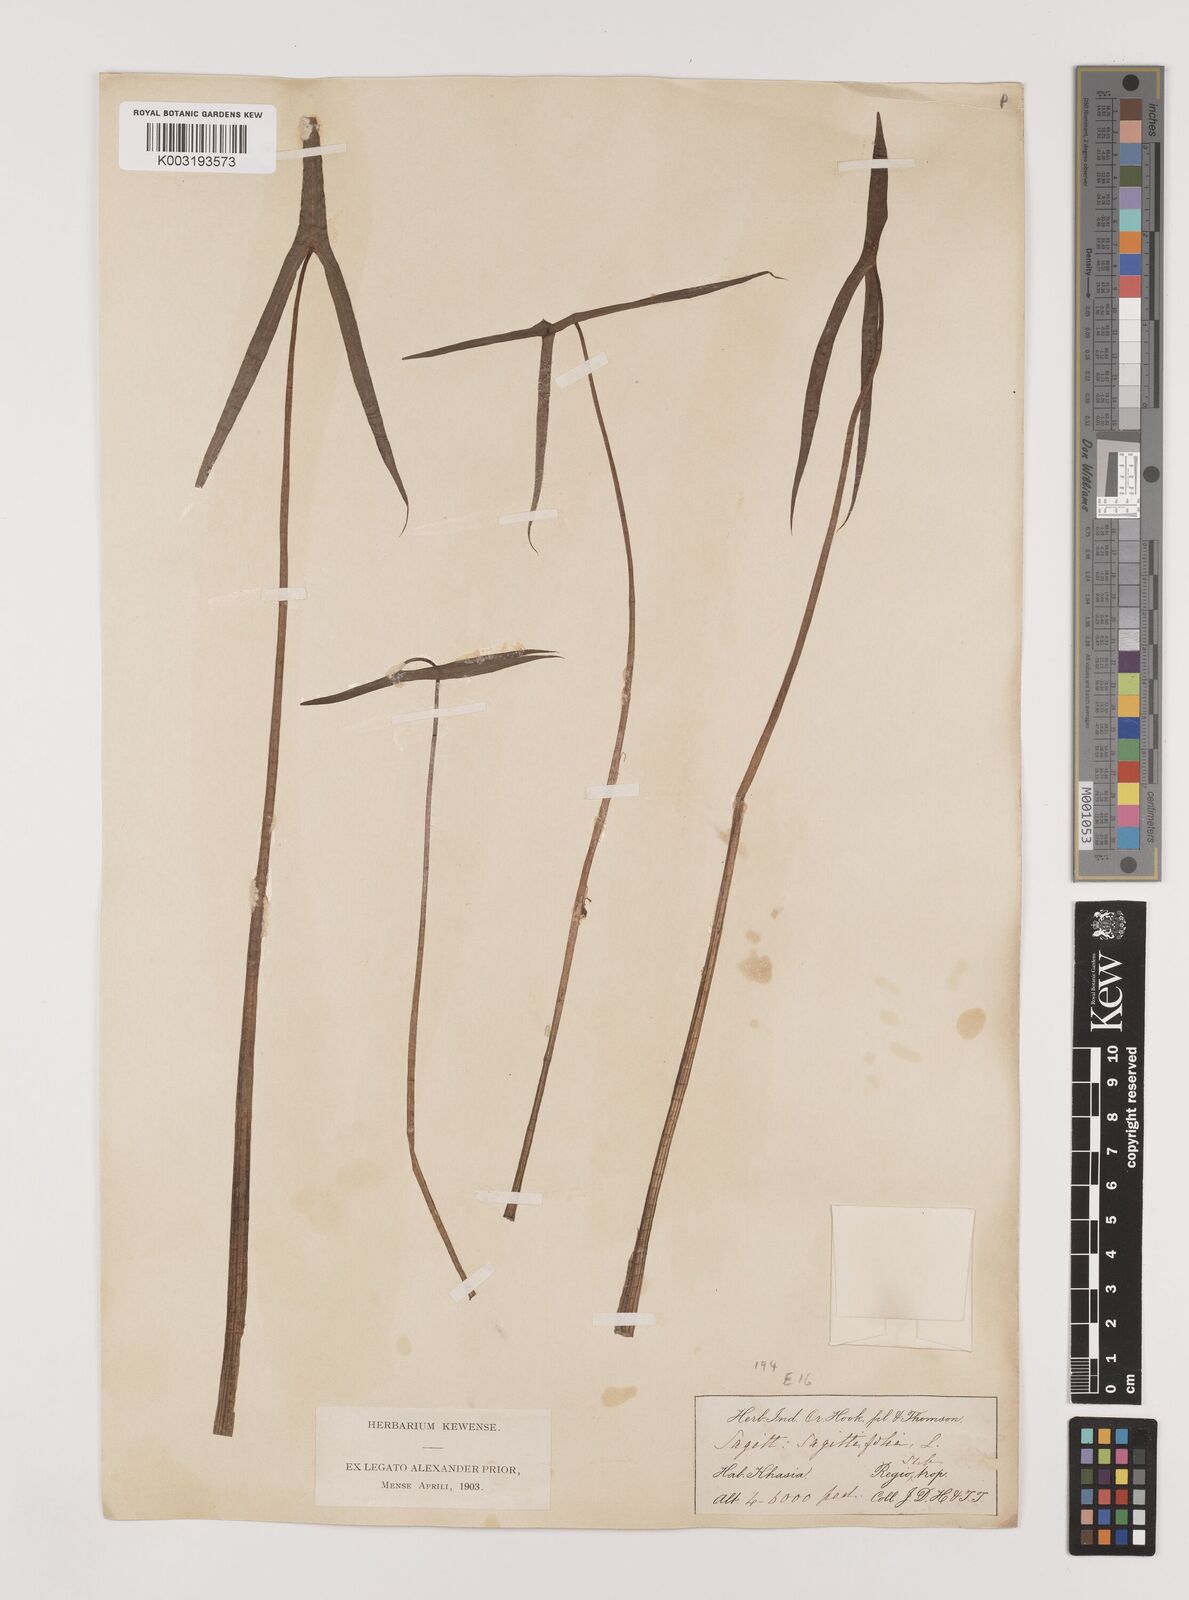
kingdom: Plantae
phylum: Tracheophyta
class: Liliopsida
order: Alismatales
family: Alismataceae
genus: Sagittaria
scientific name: Sagittaria sagittifolia
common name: Arrowhead
